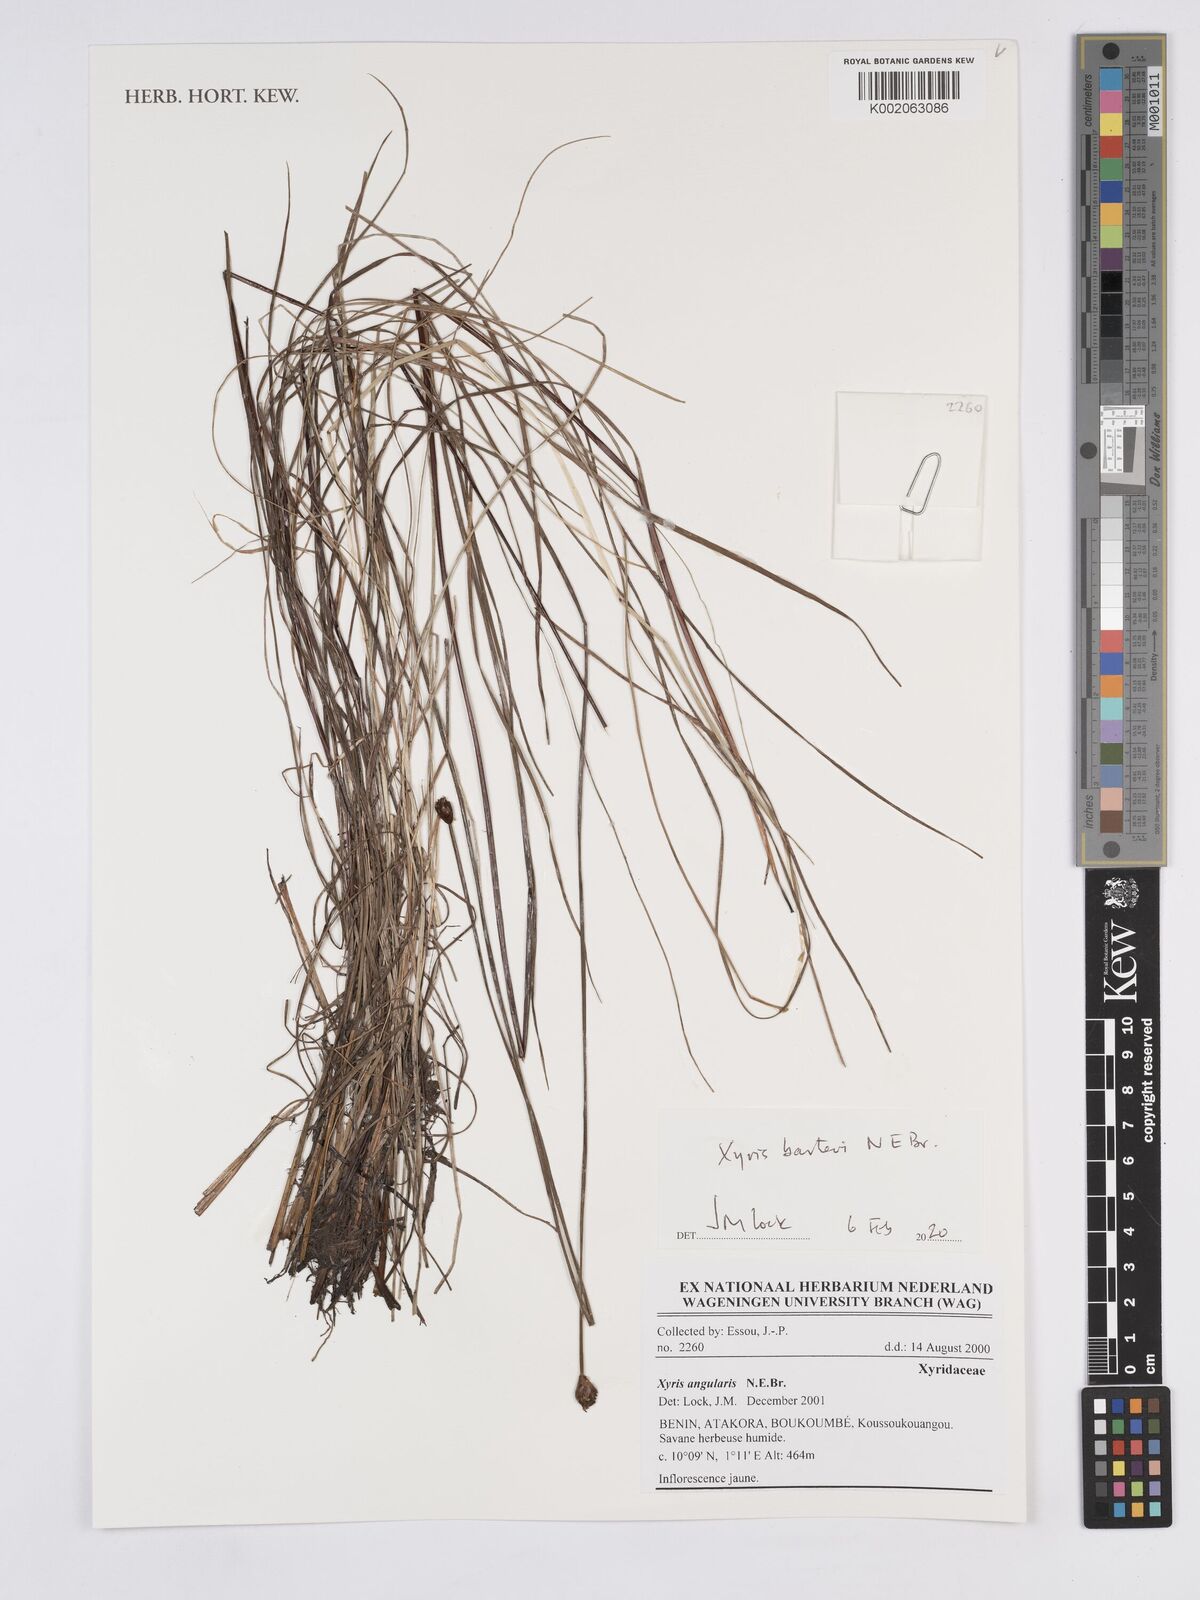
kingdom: Plantae
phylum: Tracheophyta
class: Liliopsida
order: Poales
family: Xyridaceae
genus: Xyris
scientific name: Xyris barteri
